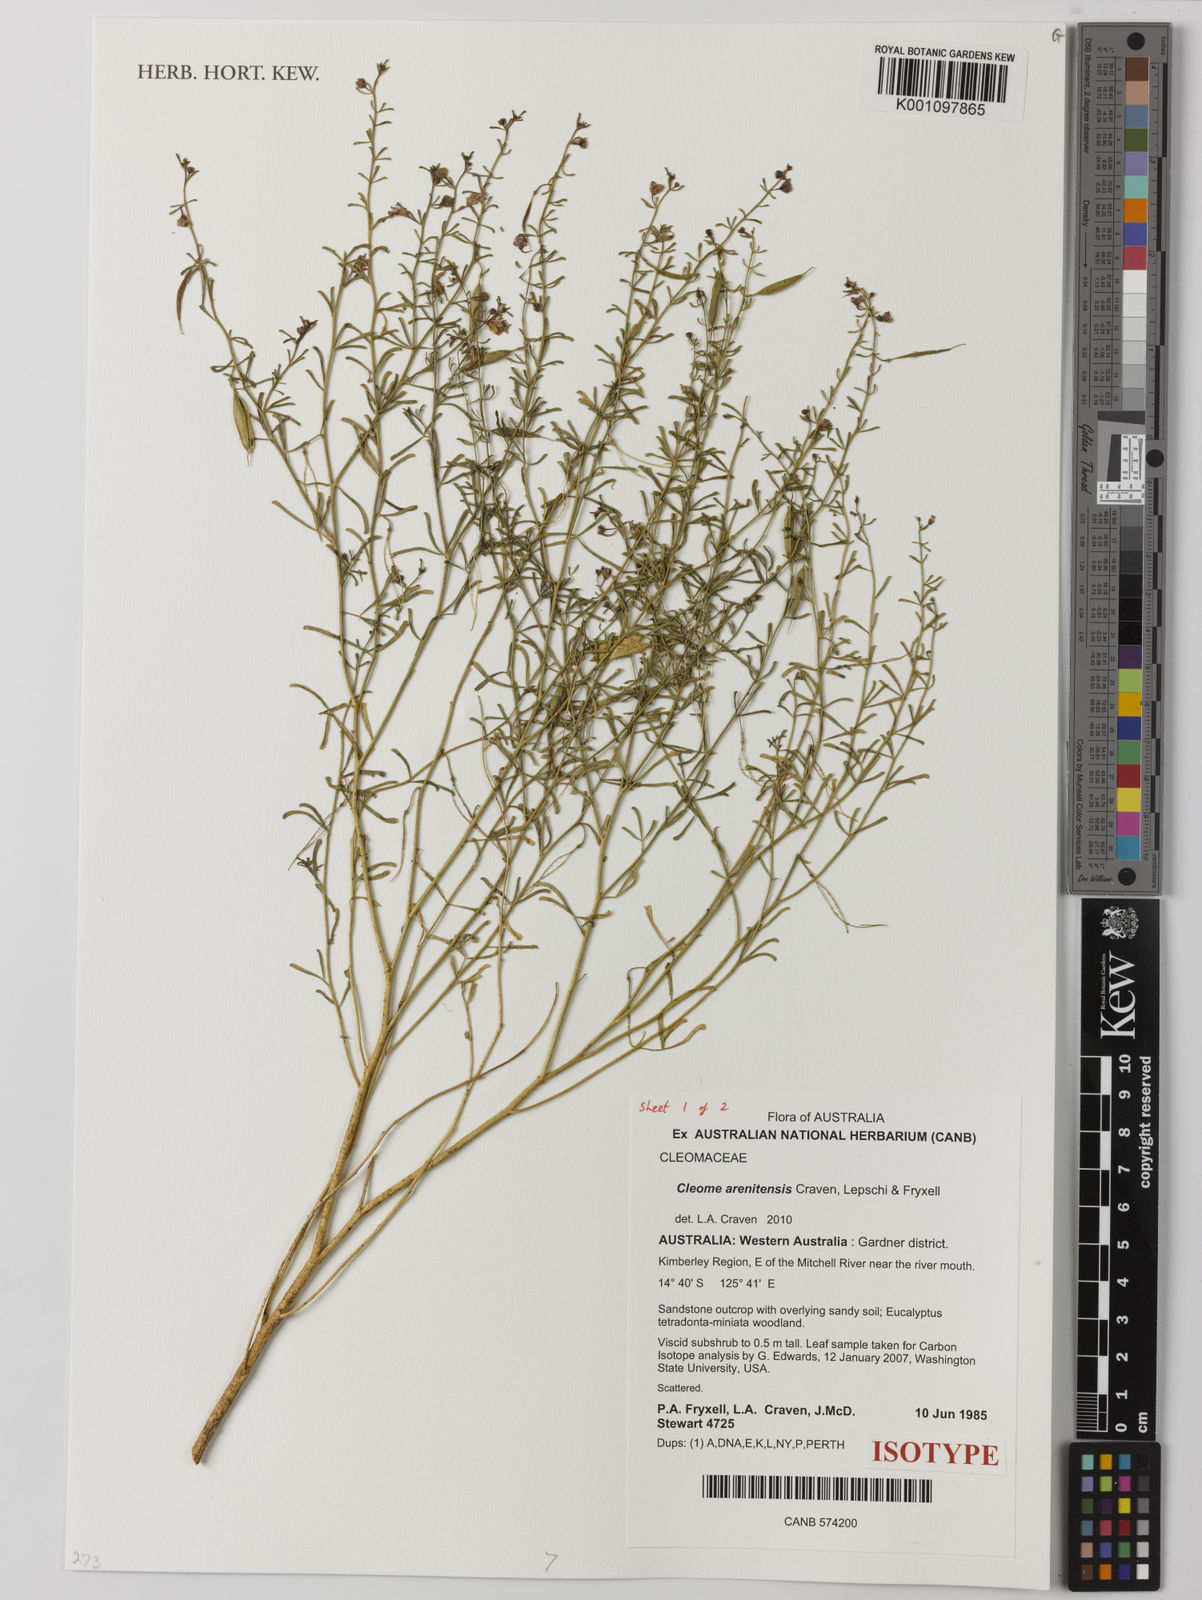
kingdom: Plantae
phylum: Tracheophyta
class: Magnoliopsida
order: Brassicales
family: Cleomaceae
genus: Arivela
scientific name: Arivela arenitensis
